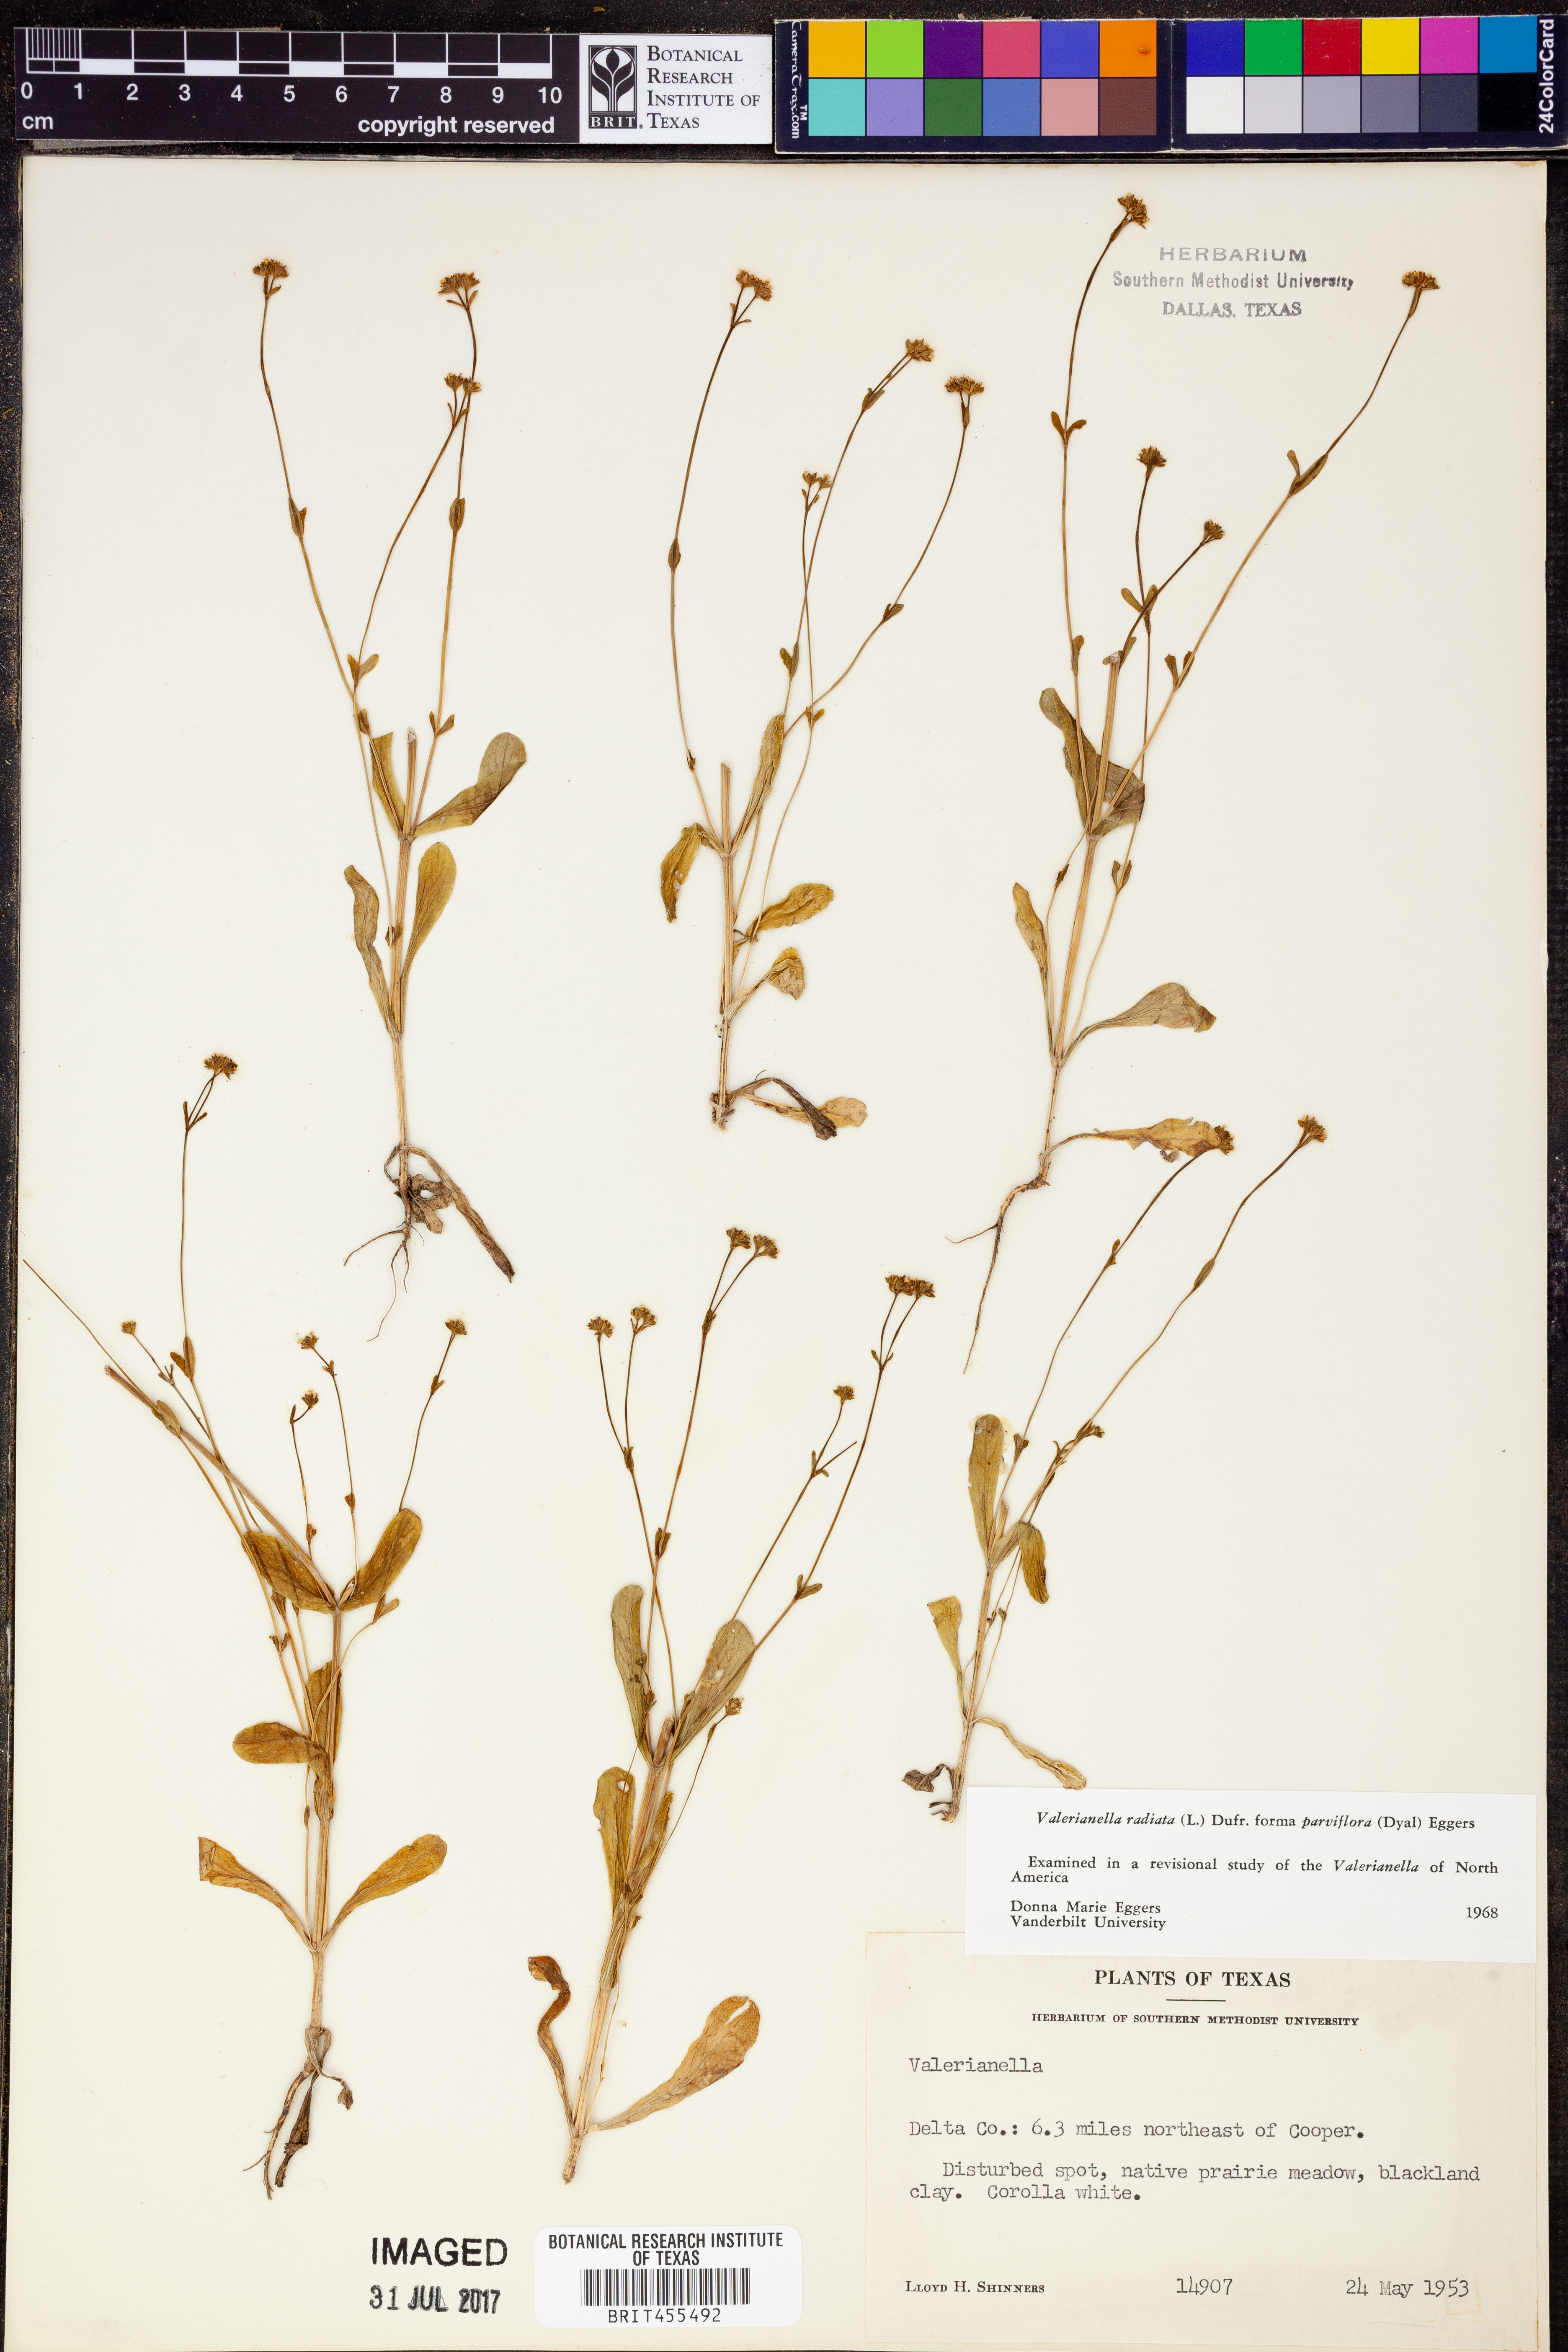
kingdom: Plantae
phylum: Tracheophyta
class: Magnoliopsida
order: Dipsacales
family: Caprifoliaceae
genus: Valerianella
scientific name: Valerianella radiata
